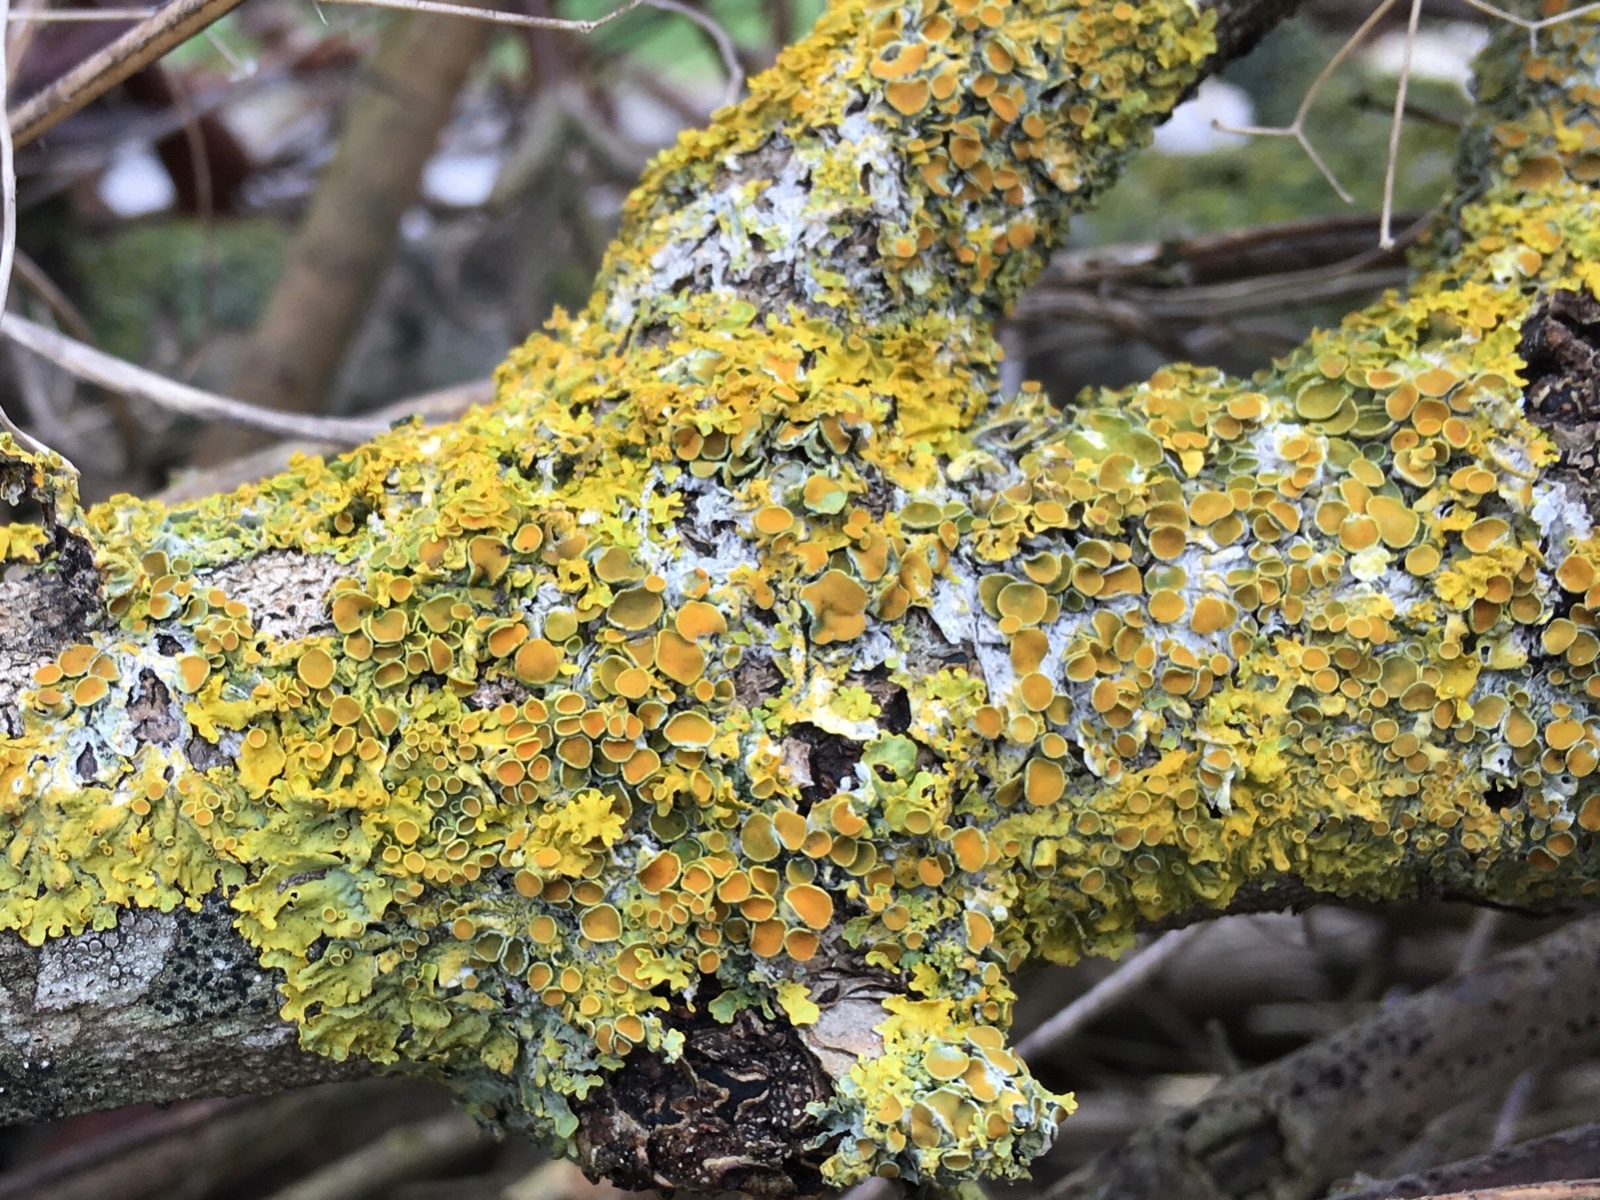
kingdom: Fungi
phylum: Ascomycota
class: Lecanoromycetes
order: Teloschistales
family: Teloschistaceae
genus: Xanthoria
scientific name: Xanthoria parietina
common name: almindelig væggelav
